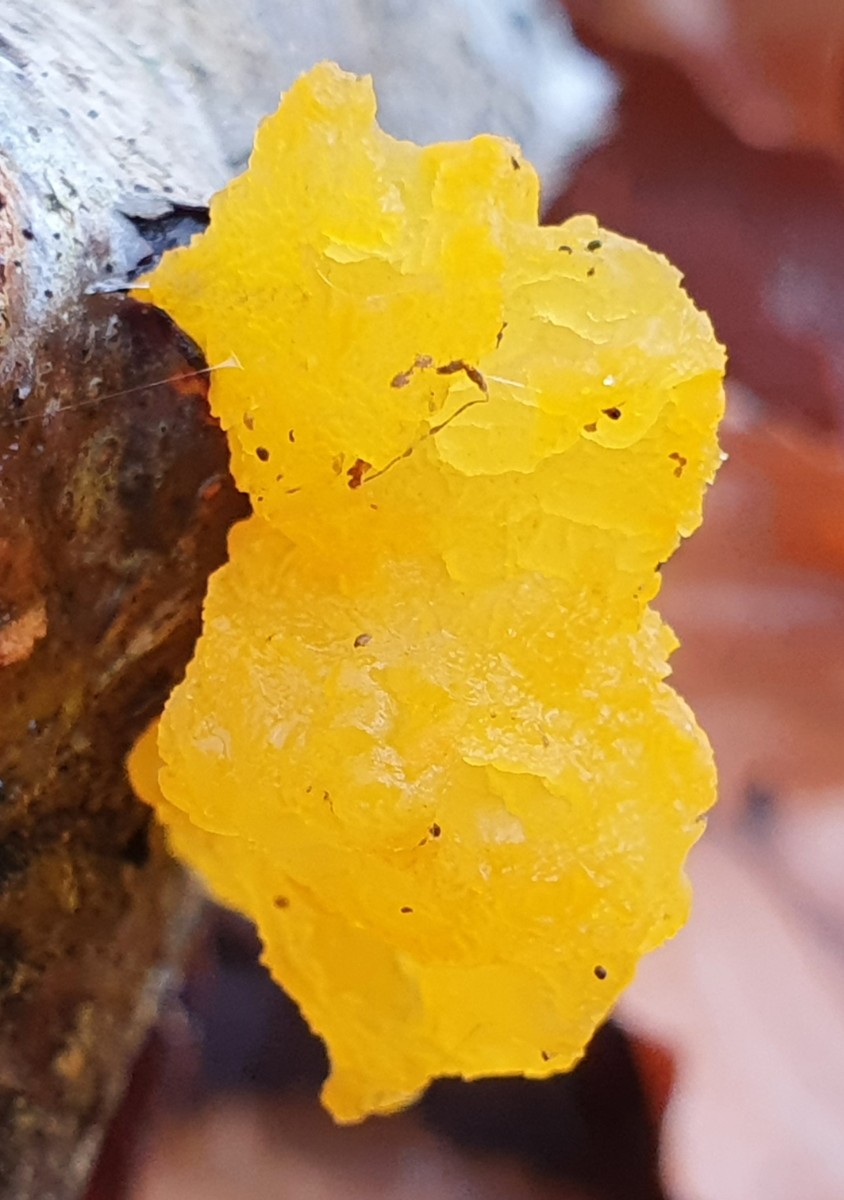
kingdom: Fungi
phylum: Basidiomycota
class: Tremellomycetes
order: Tremellales
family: Tremellaceae
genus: Tremella
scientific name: Tremella mesenterica
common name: gul bævresvamp
